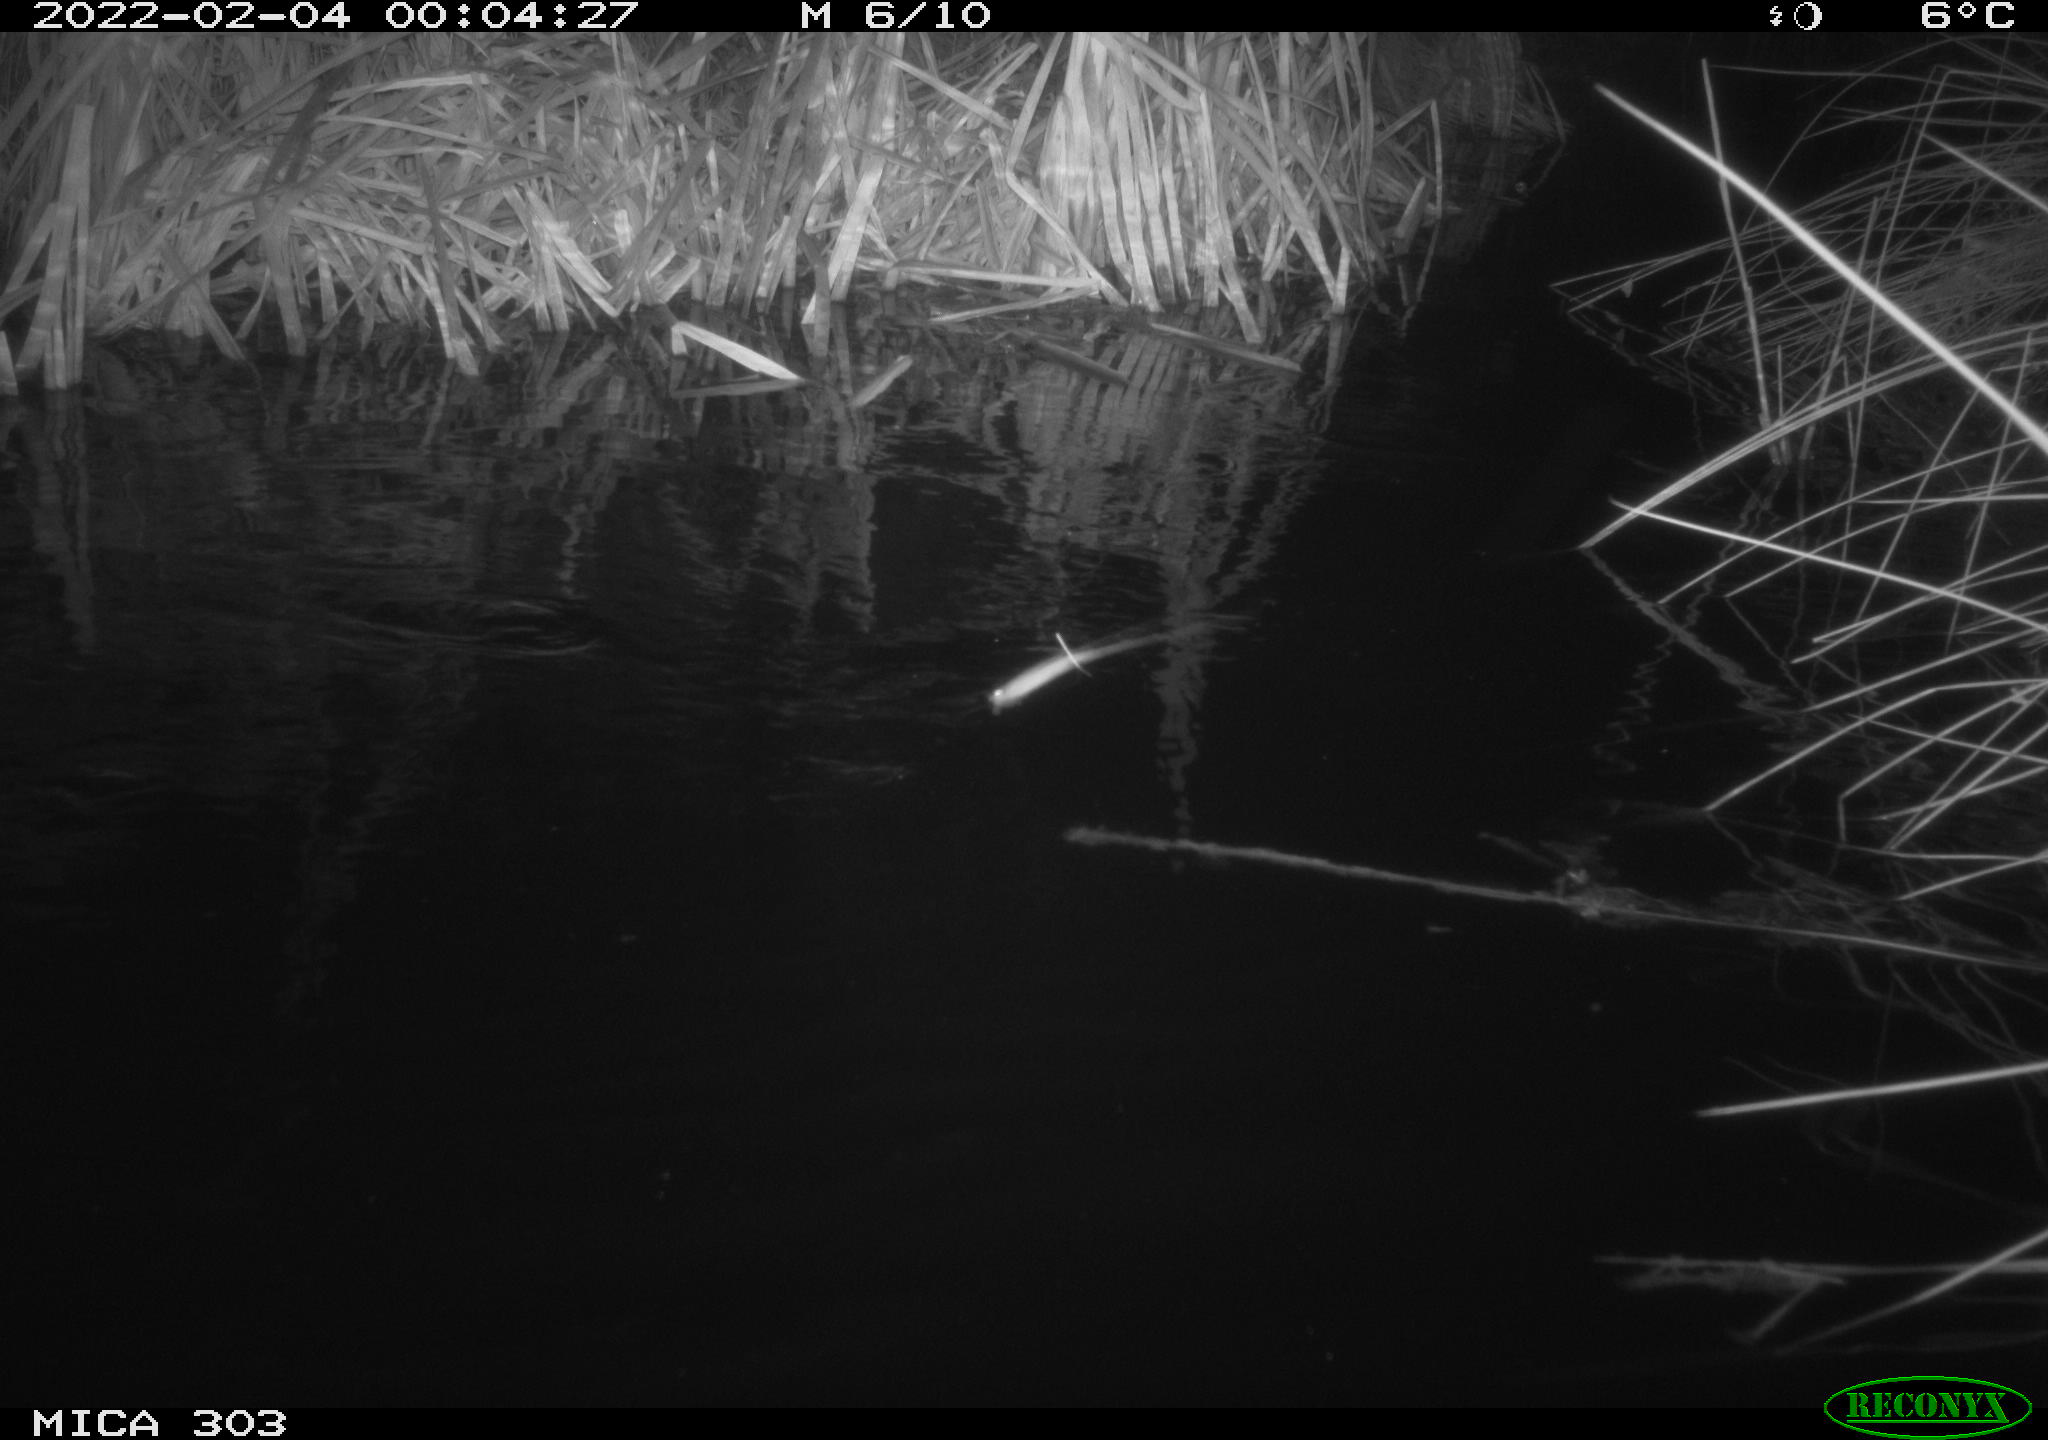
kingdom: Animalia
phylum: Chordata
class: Mammalia
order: Rodentia
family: Castoridae
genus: Castor
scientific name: Castor fiber
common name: Eurasian beaver
